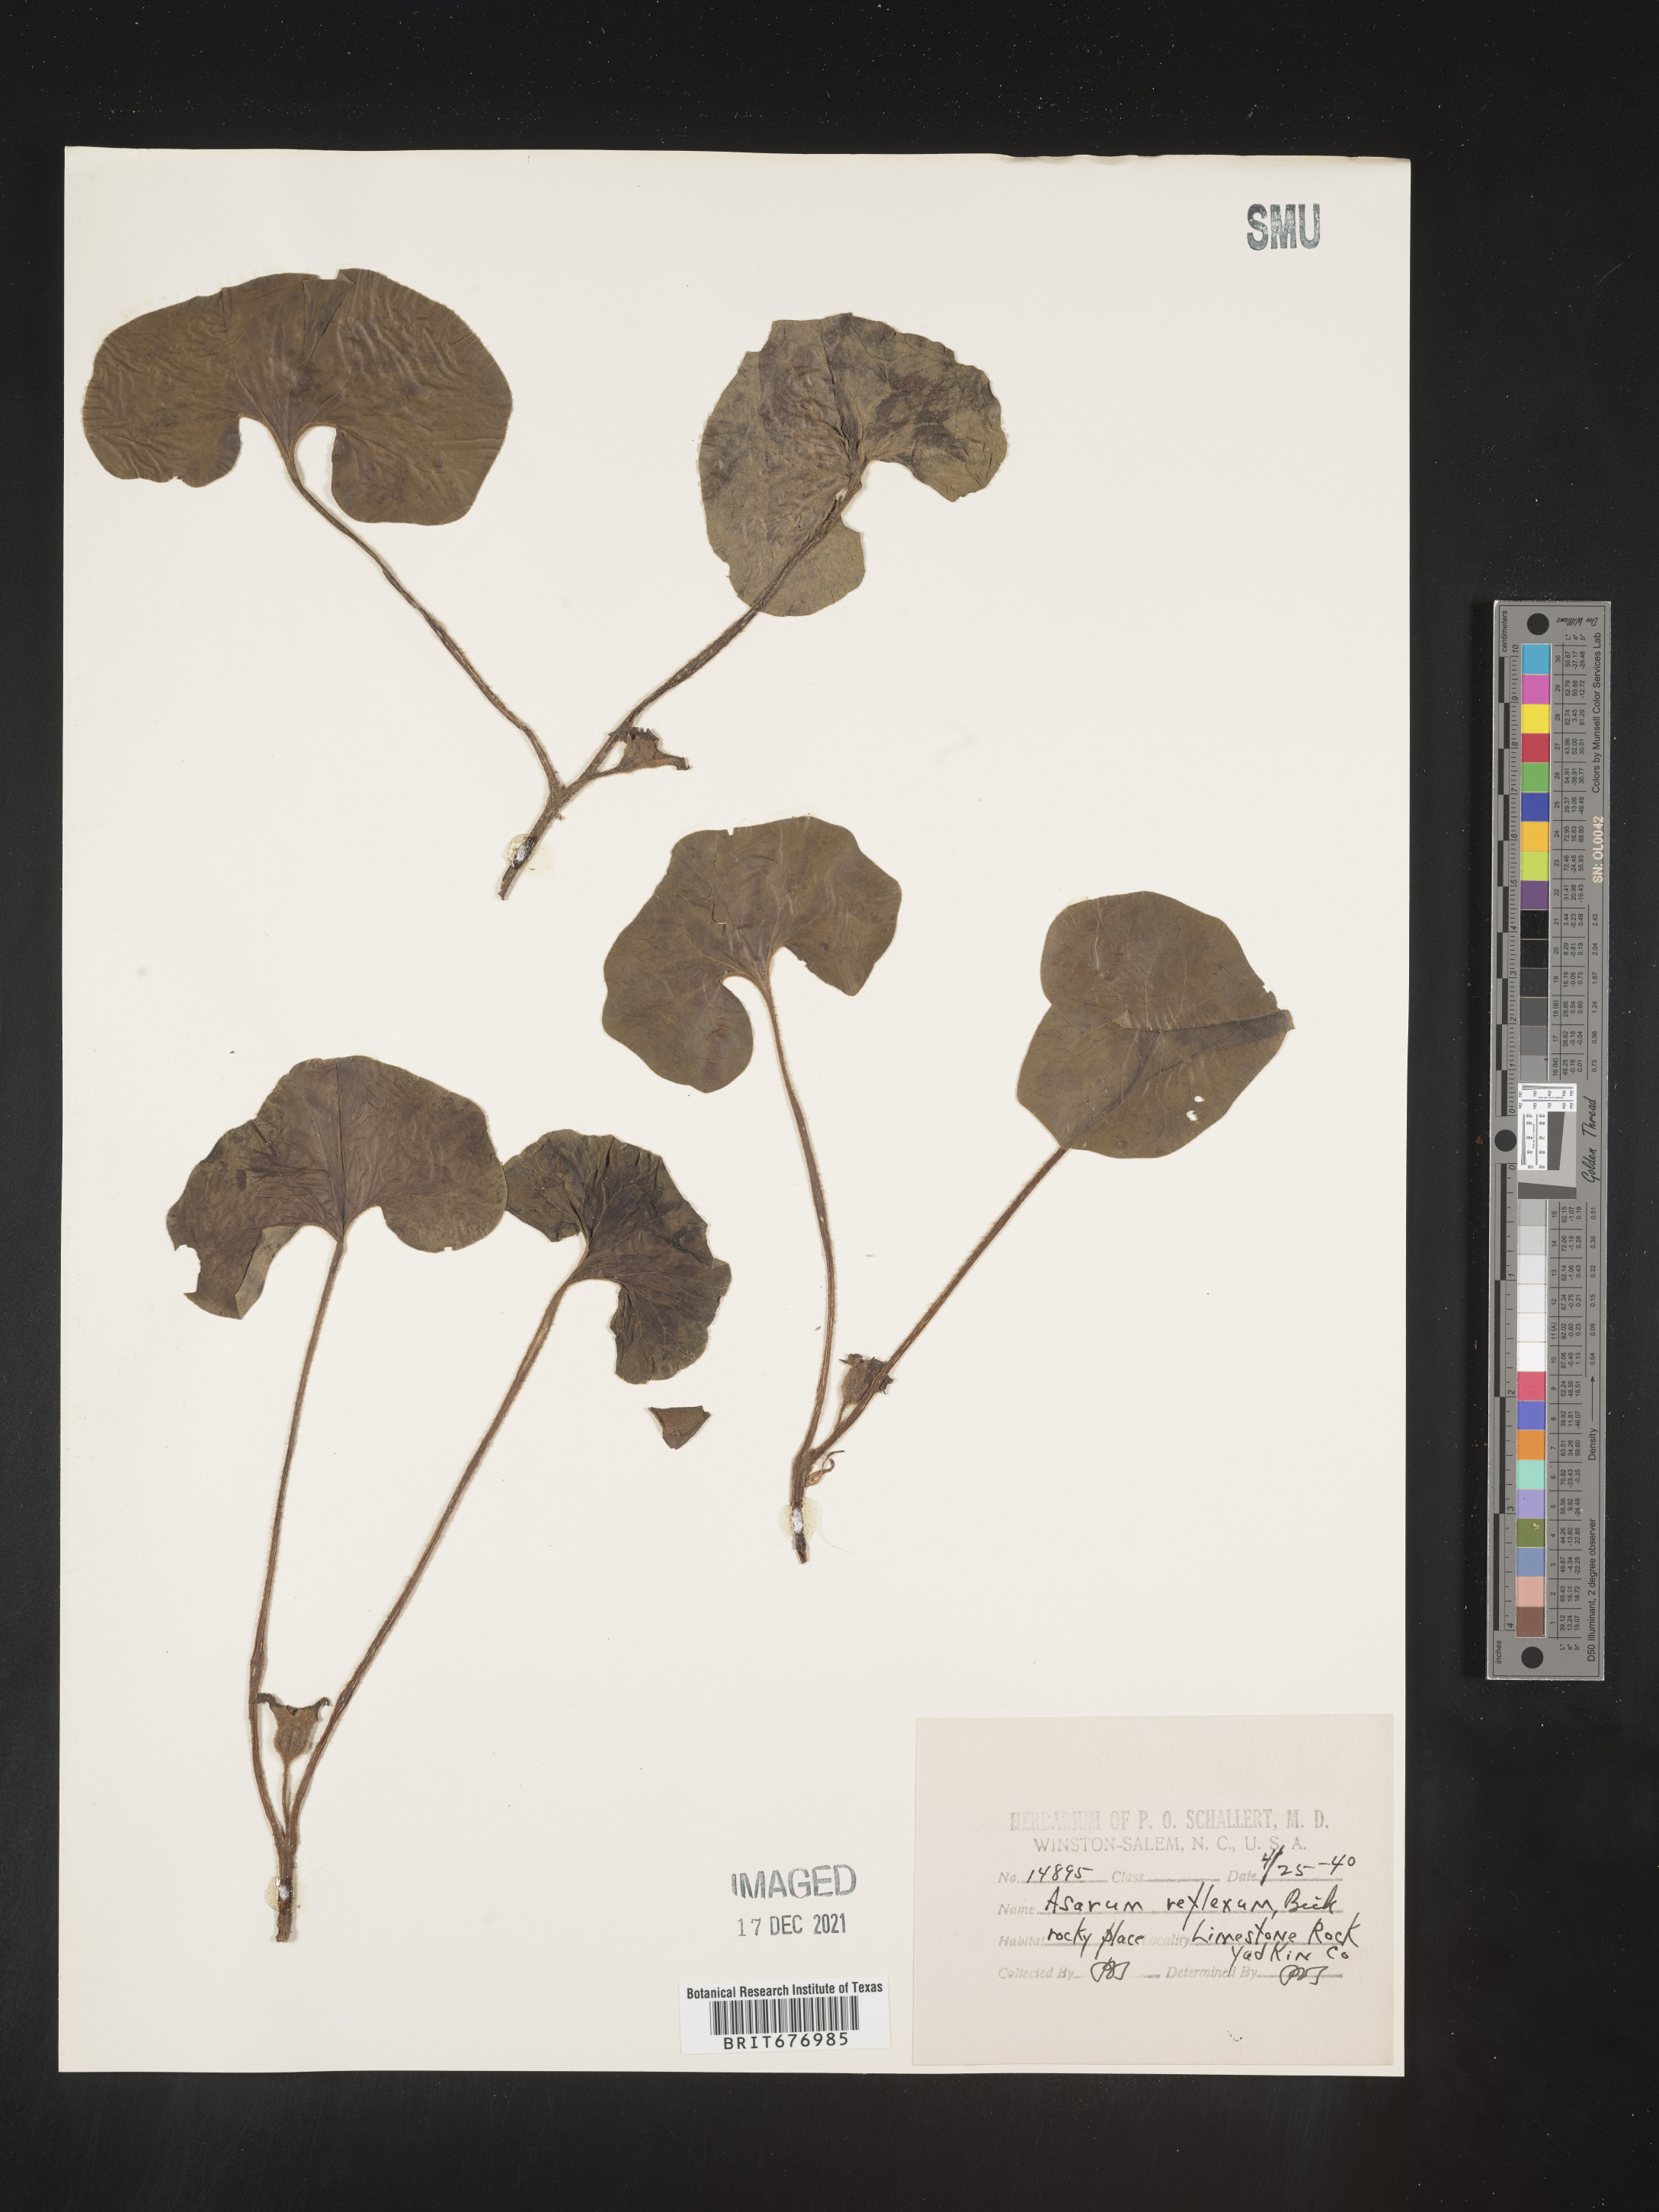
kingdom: Plantae
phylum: Tracheophyta
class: Magnoliopsida
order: Piperales
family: Aristolochiaceae
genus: Asarum
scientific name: Asarum caudatum
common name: Wild ginger
